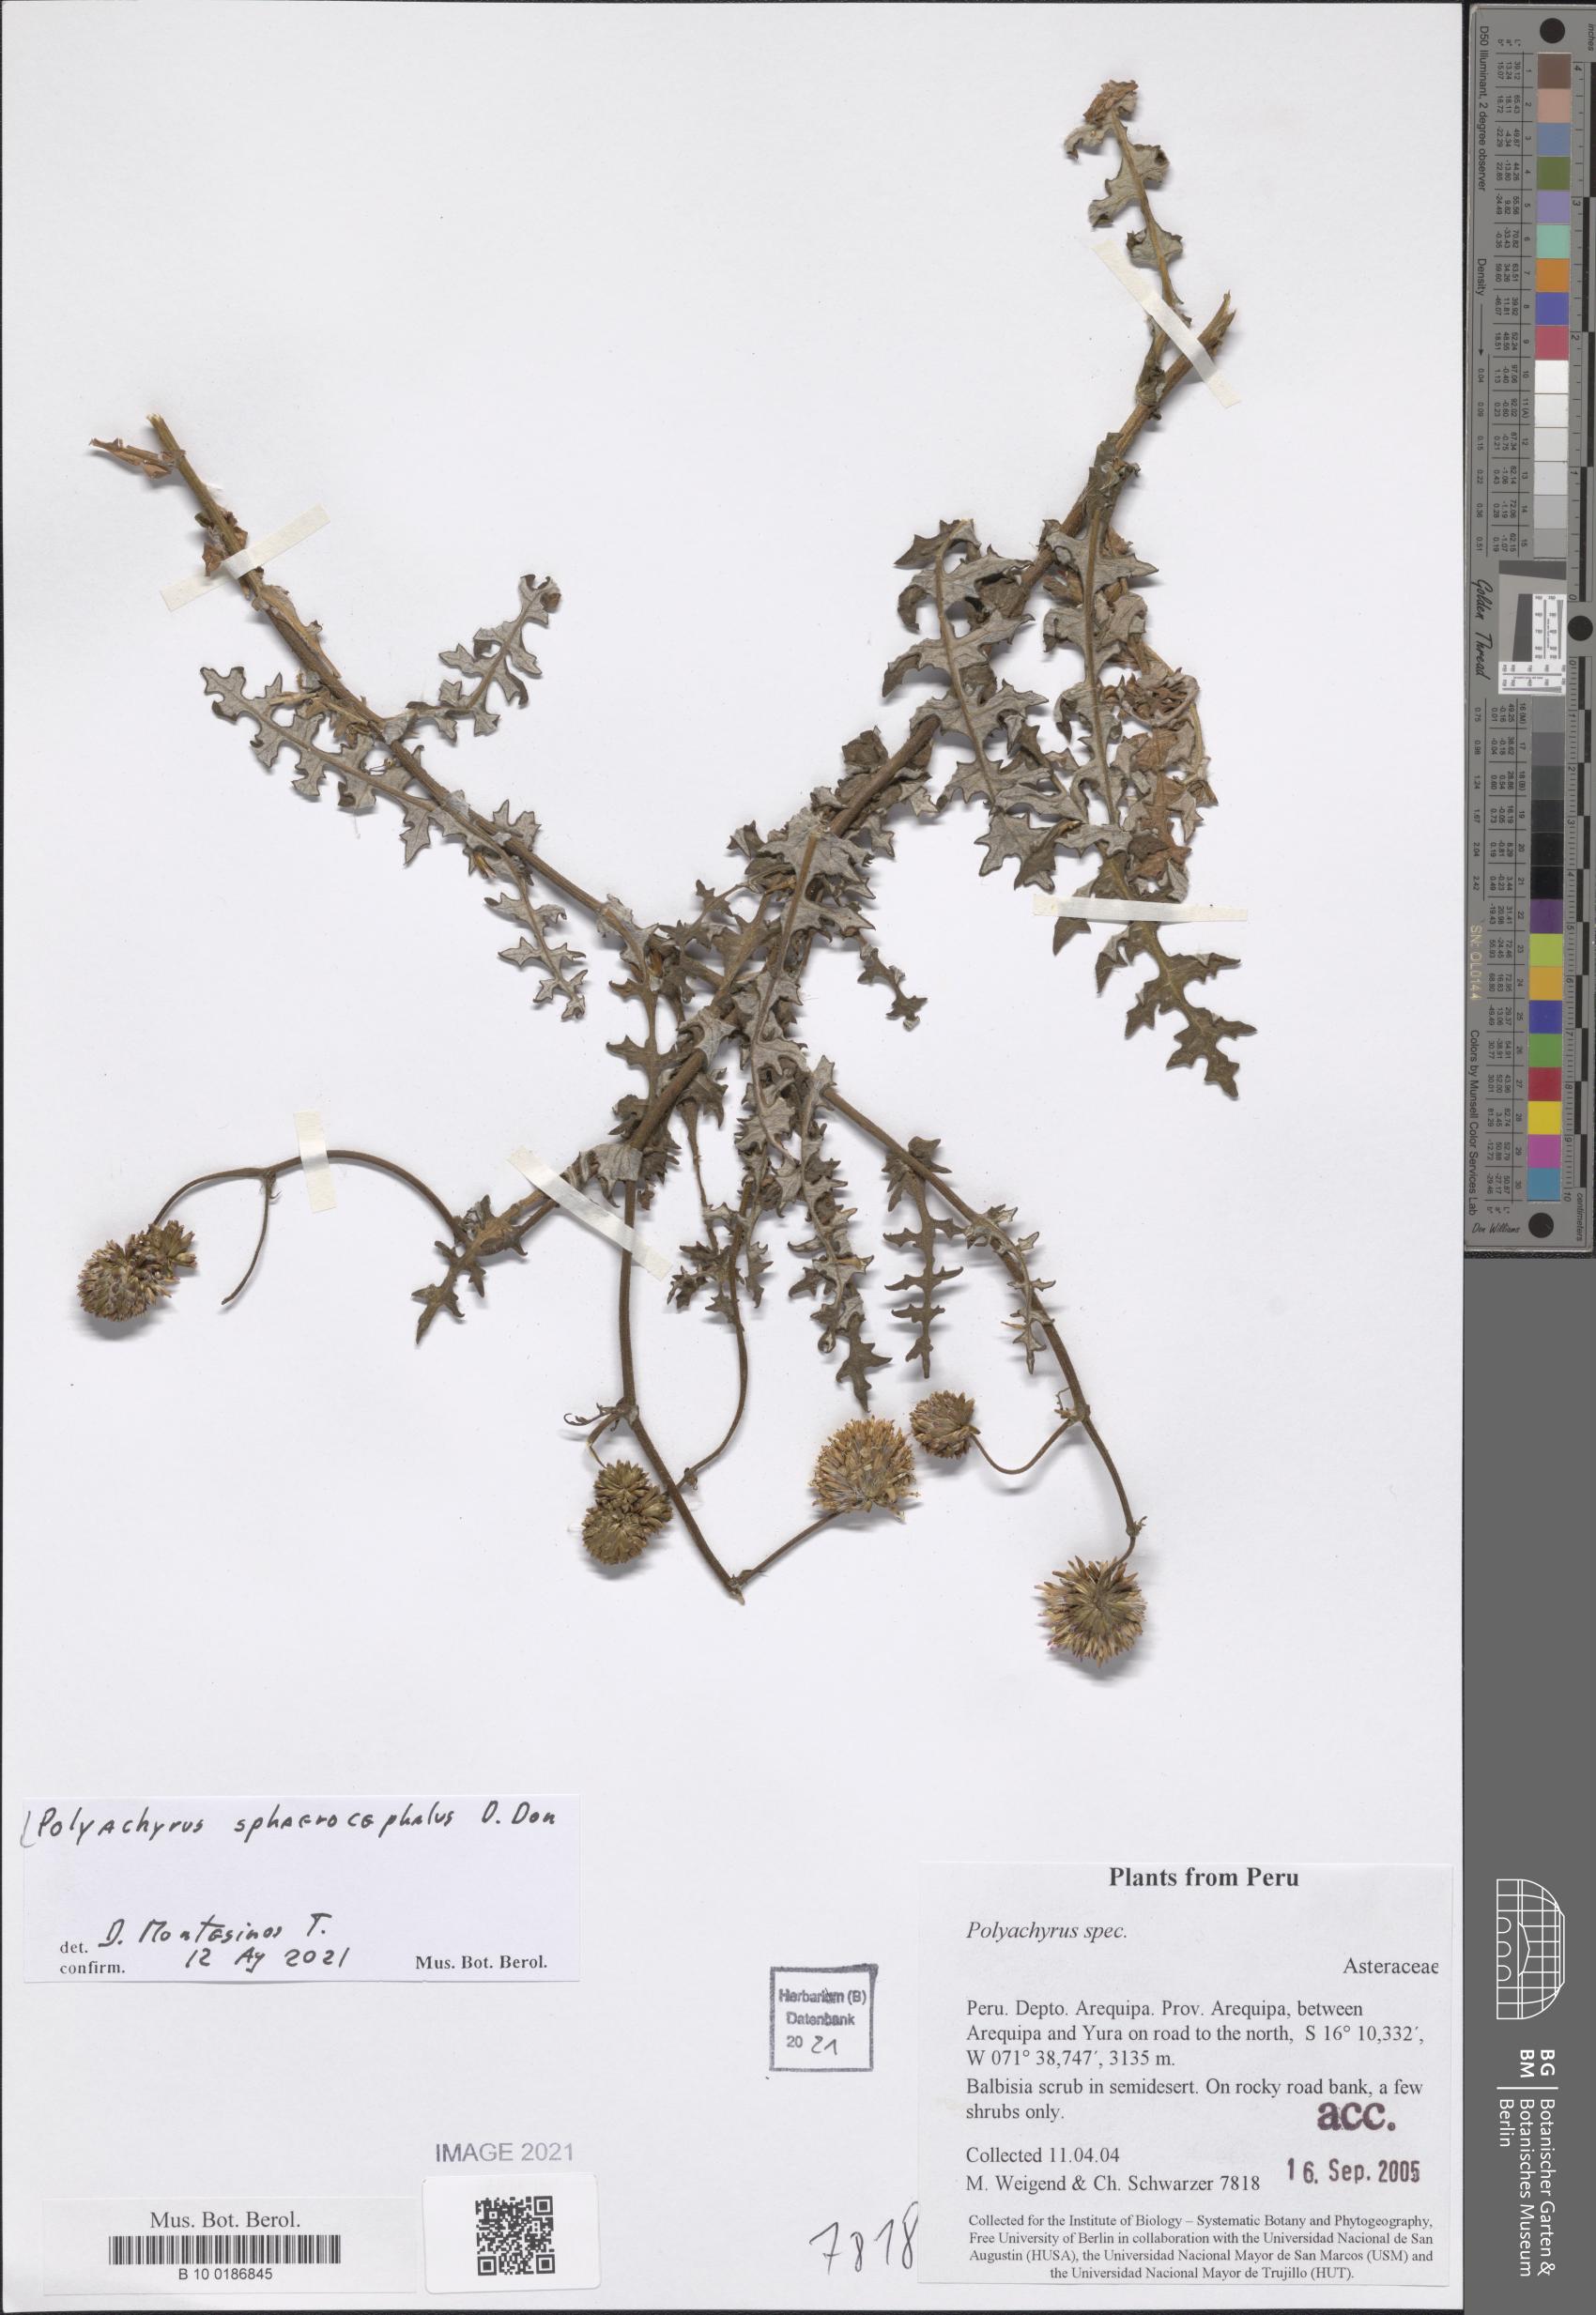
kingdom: Plantae
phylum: Tracheophyta
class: Magnoliopsida
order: Asterales
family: Asteraceae
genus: Polyachyrus
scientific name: Polyachyrus sphaerocephalus
